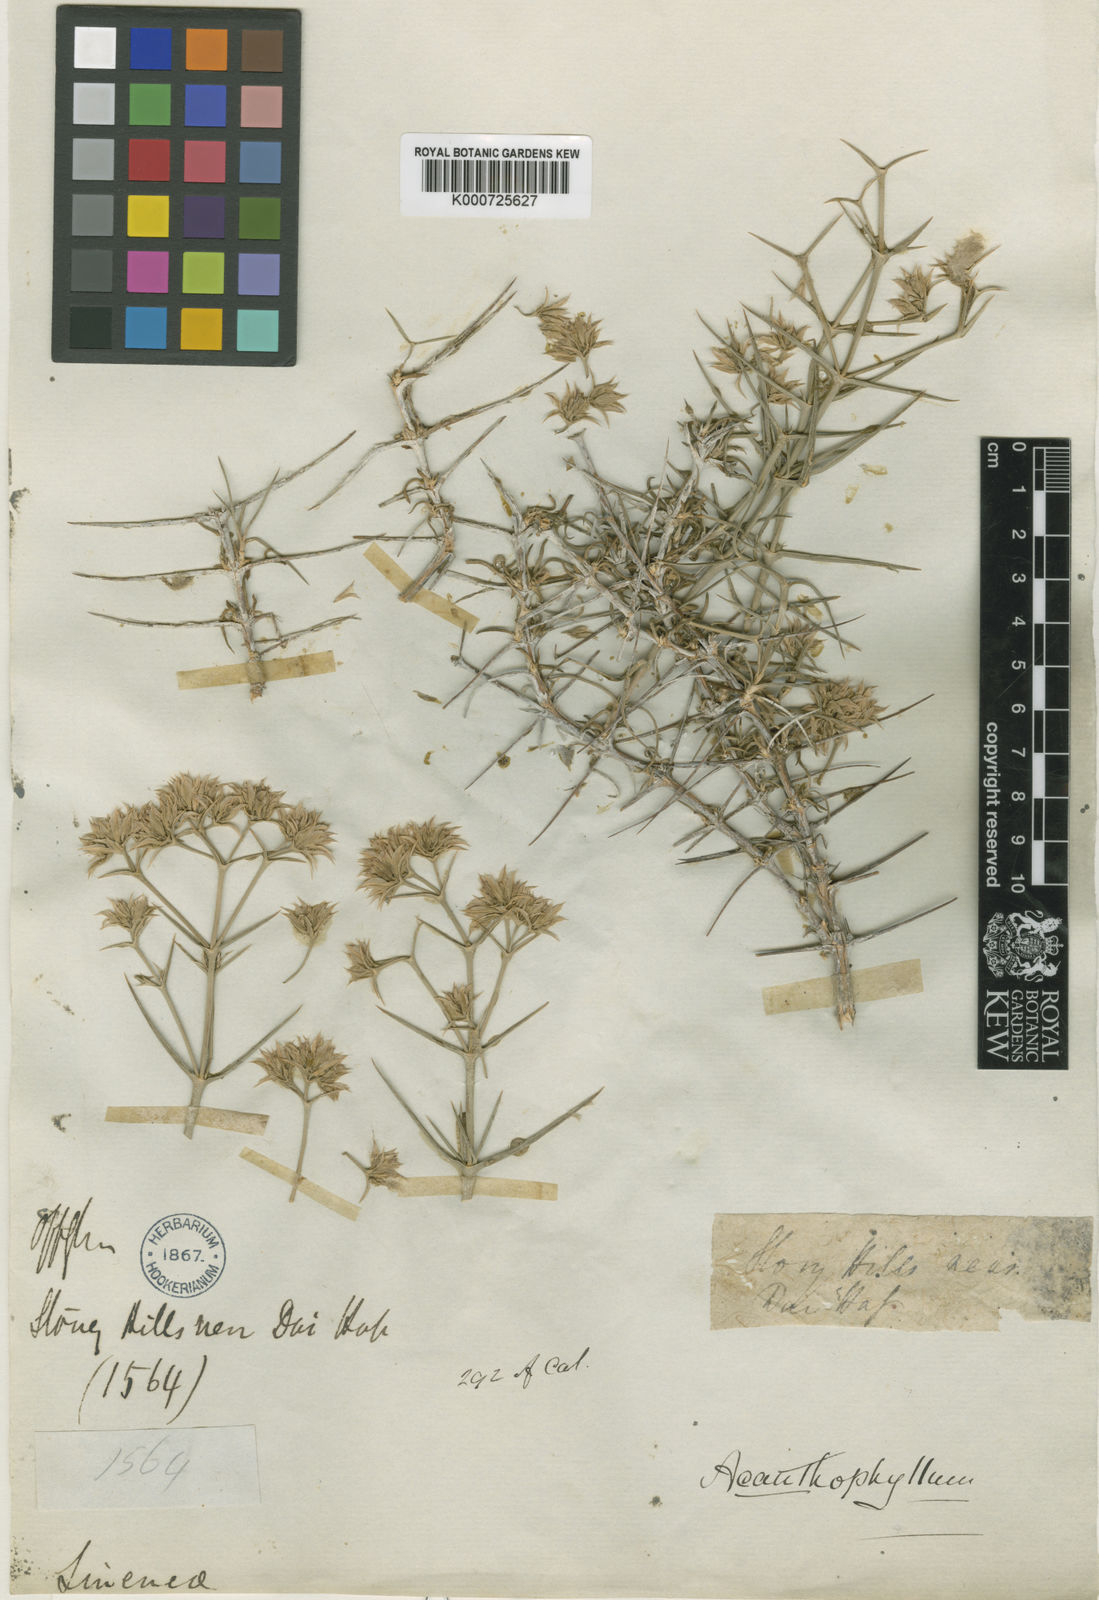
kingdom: Plantae
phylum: Tracheophyta
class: Magnoliopsida
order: Caryophyllales
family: Caryophyllaceae
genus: Acanthophyllum
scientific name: Acanthophyllum speciosum
